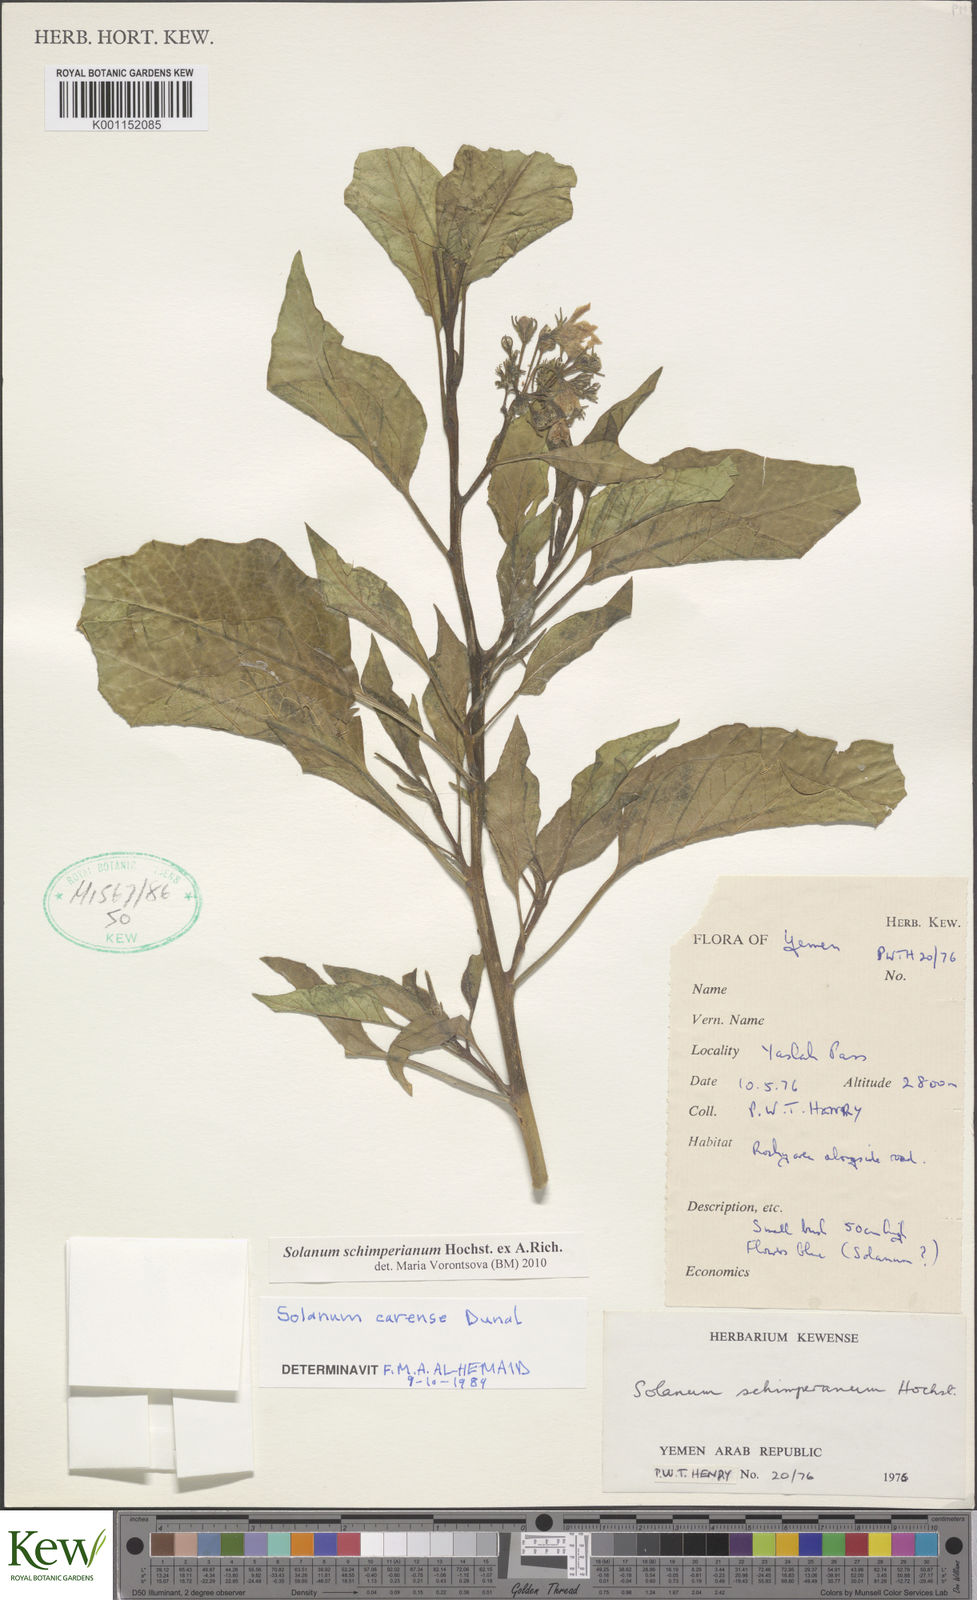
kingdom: Plantae
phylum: Tracheophyta
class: Magnoliopsida
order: Solanales
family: Solanaceae
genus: Solanum
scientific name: Solanum schimperianum
